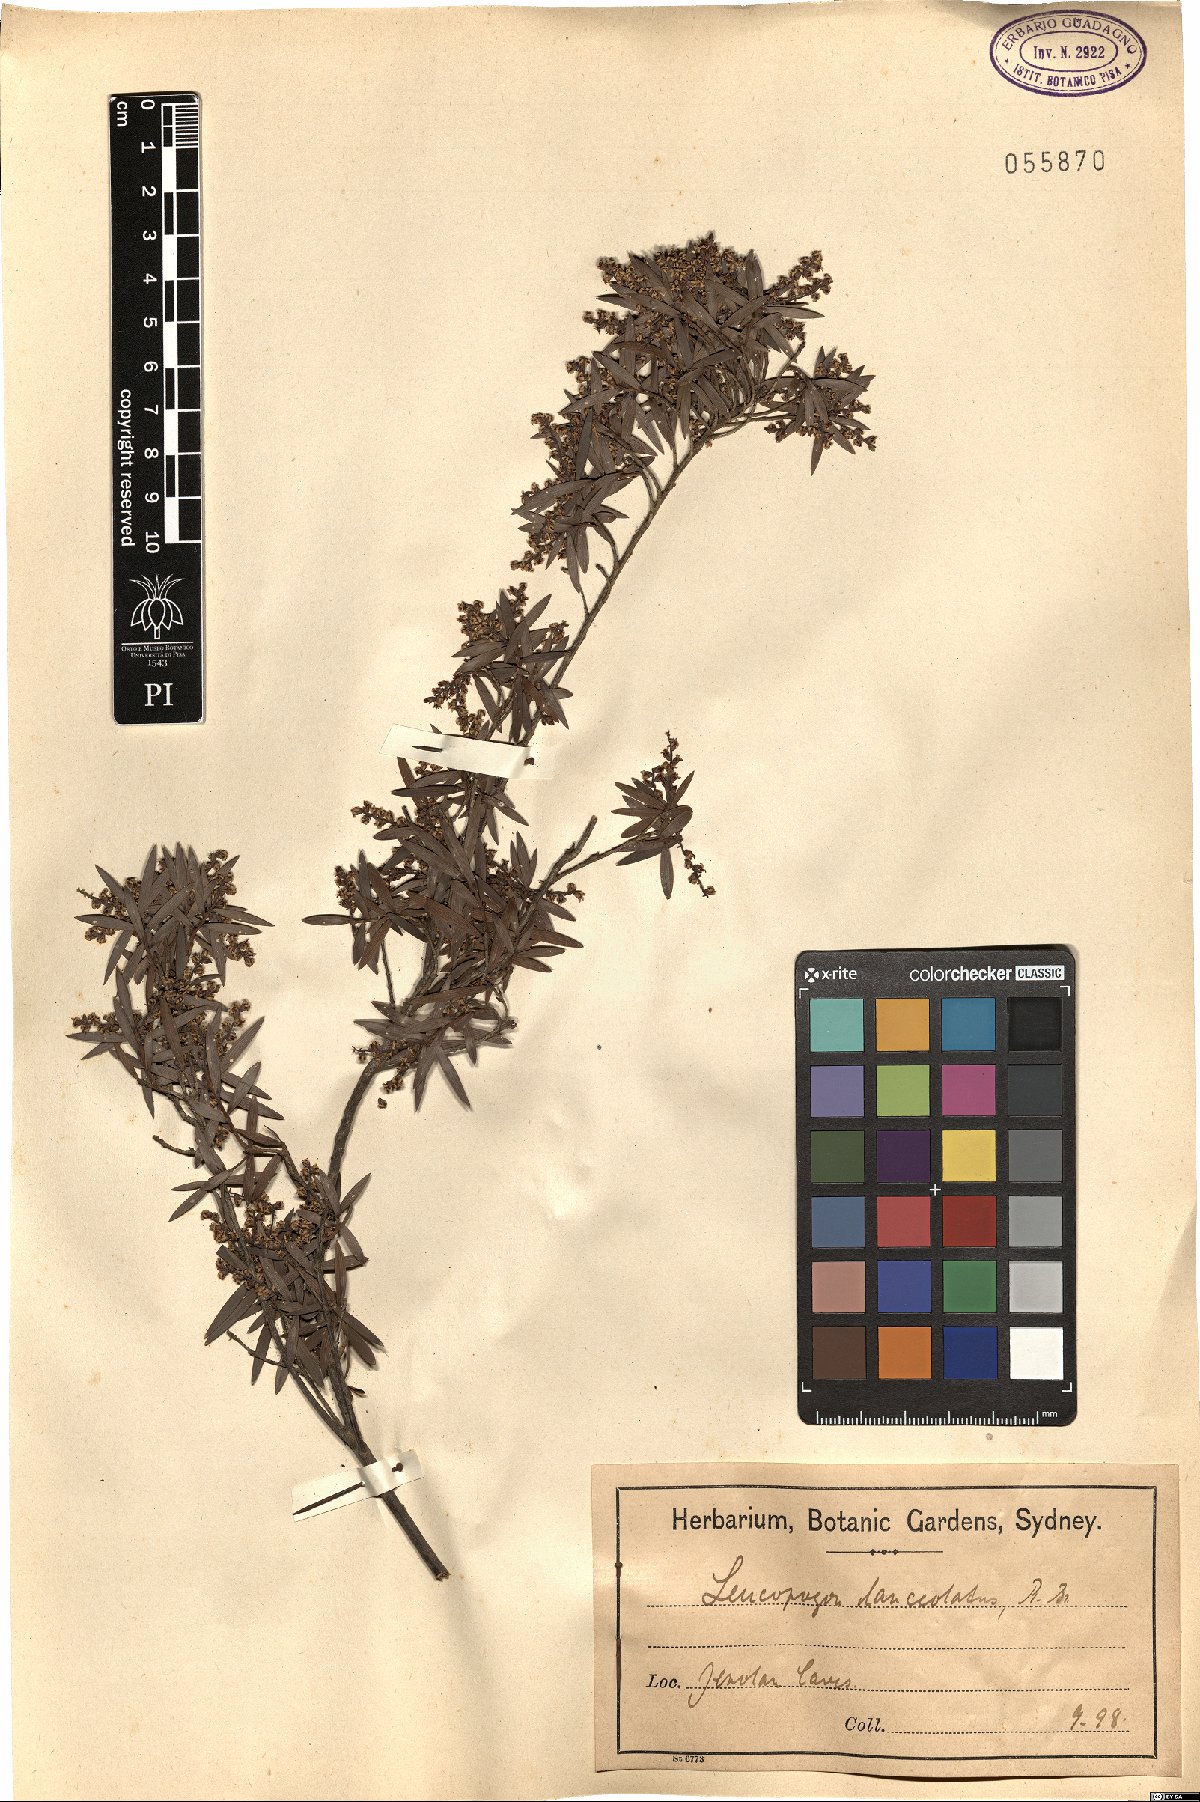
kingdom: Plantae
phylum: Tracheophyta
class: Magnoliopsida
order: Ericales
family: Ericaceae
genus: Leucopogon
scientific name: Leucopogon lanceolatus
